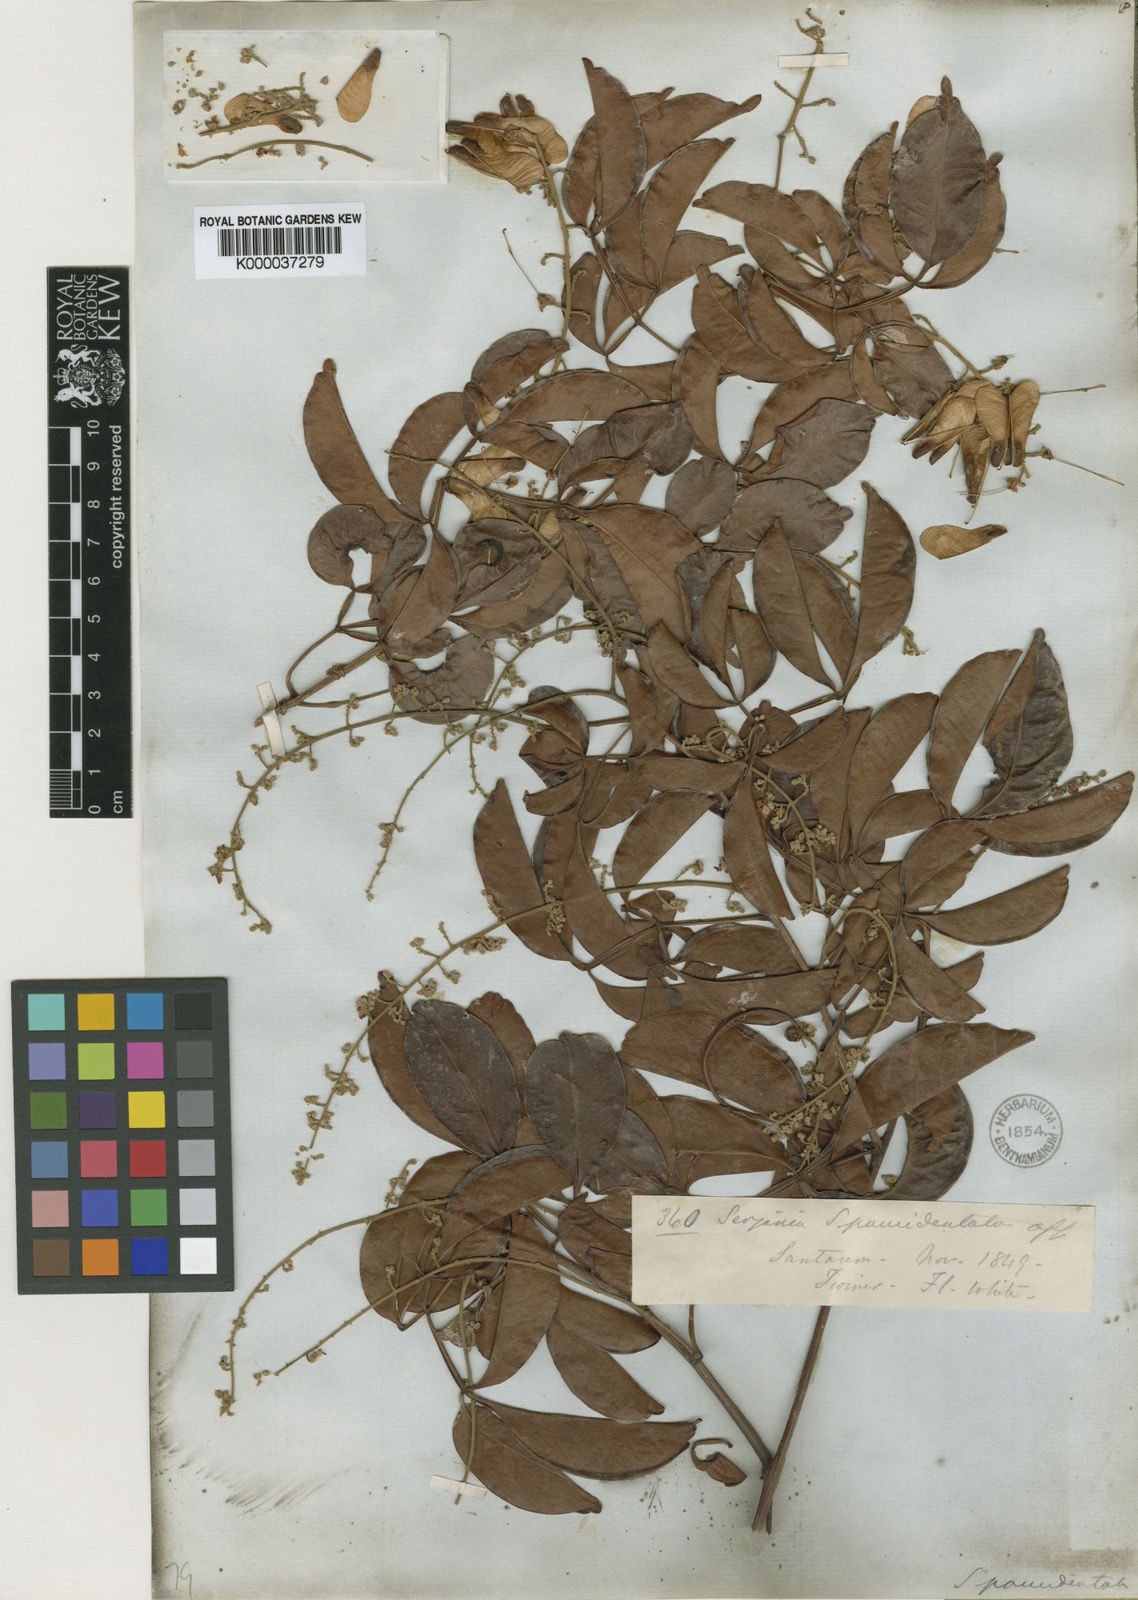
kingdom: Plantae
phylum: Tracheophyta
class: Magnoliopsida
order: Sapindales
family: Sapindaceae
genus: Serjania
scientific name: Serjania paucidentata
